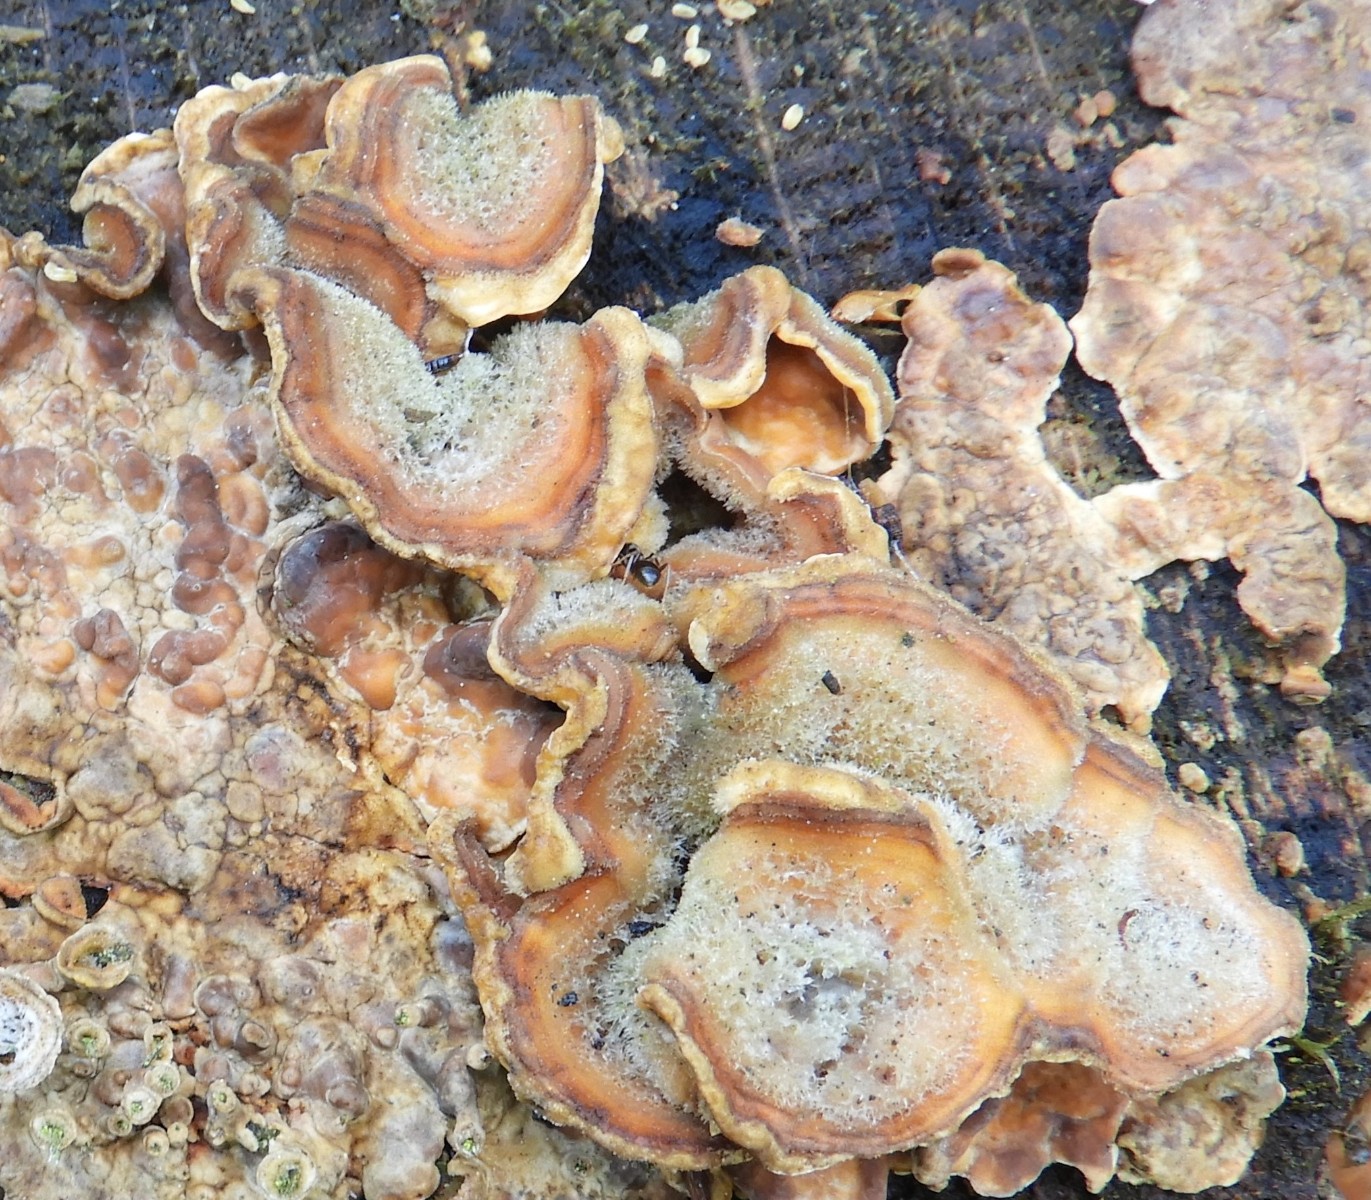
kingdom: Fungi
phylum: Basidiomycota
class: Agaricomycetes
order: Russulales
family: Stereaceae
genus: Stereum
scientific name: Stereum hirsutum
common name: håret lædersvamp
